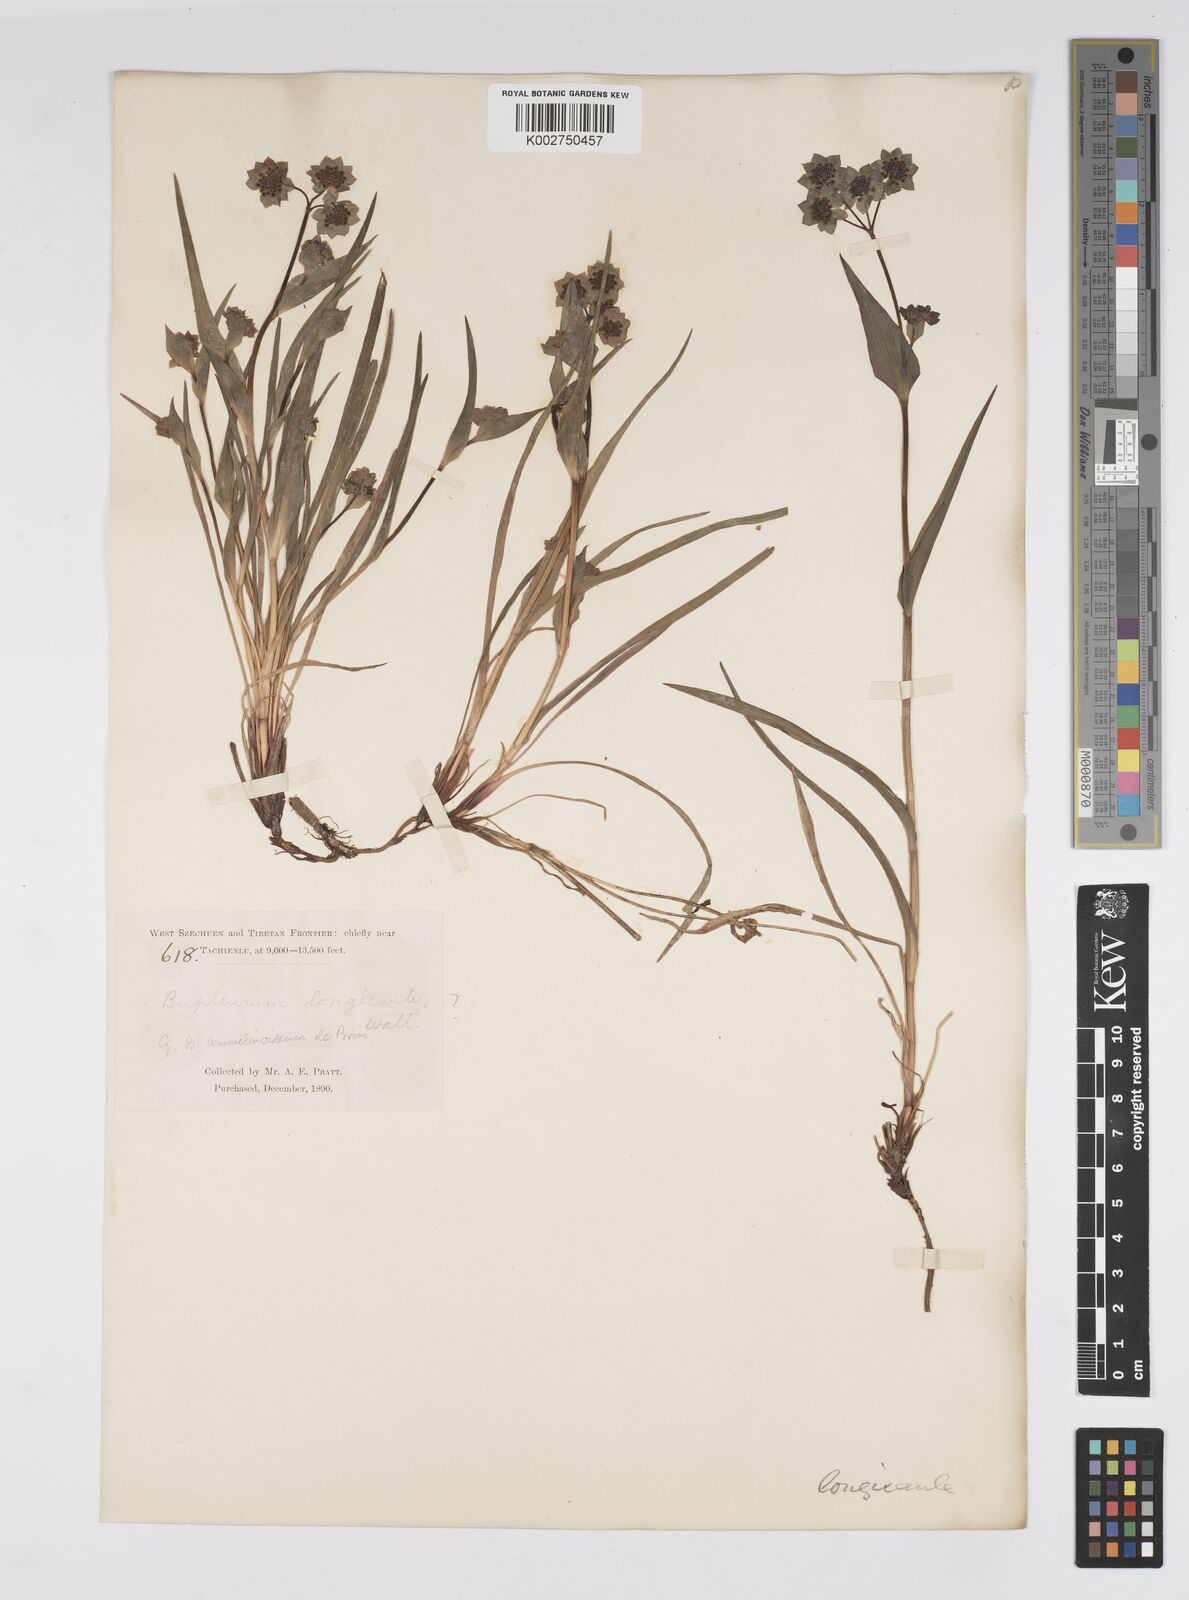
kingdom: Plantae
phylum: Tracheophyta
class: Magnoliopsida
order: Apiales
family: Apiaceae
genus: Bupleurum
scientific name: Bupleurum longicaule
